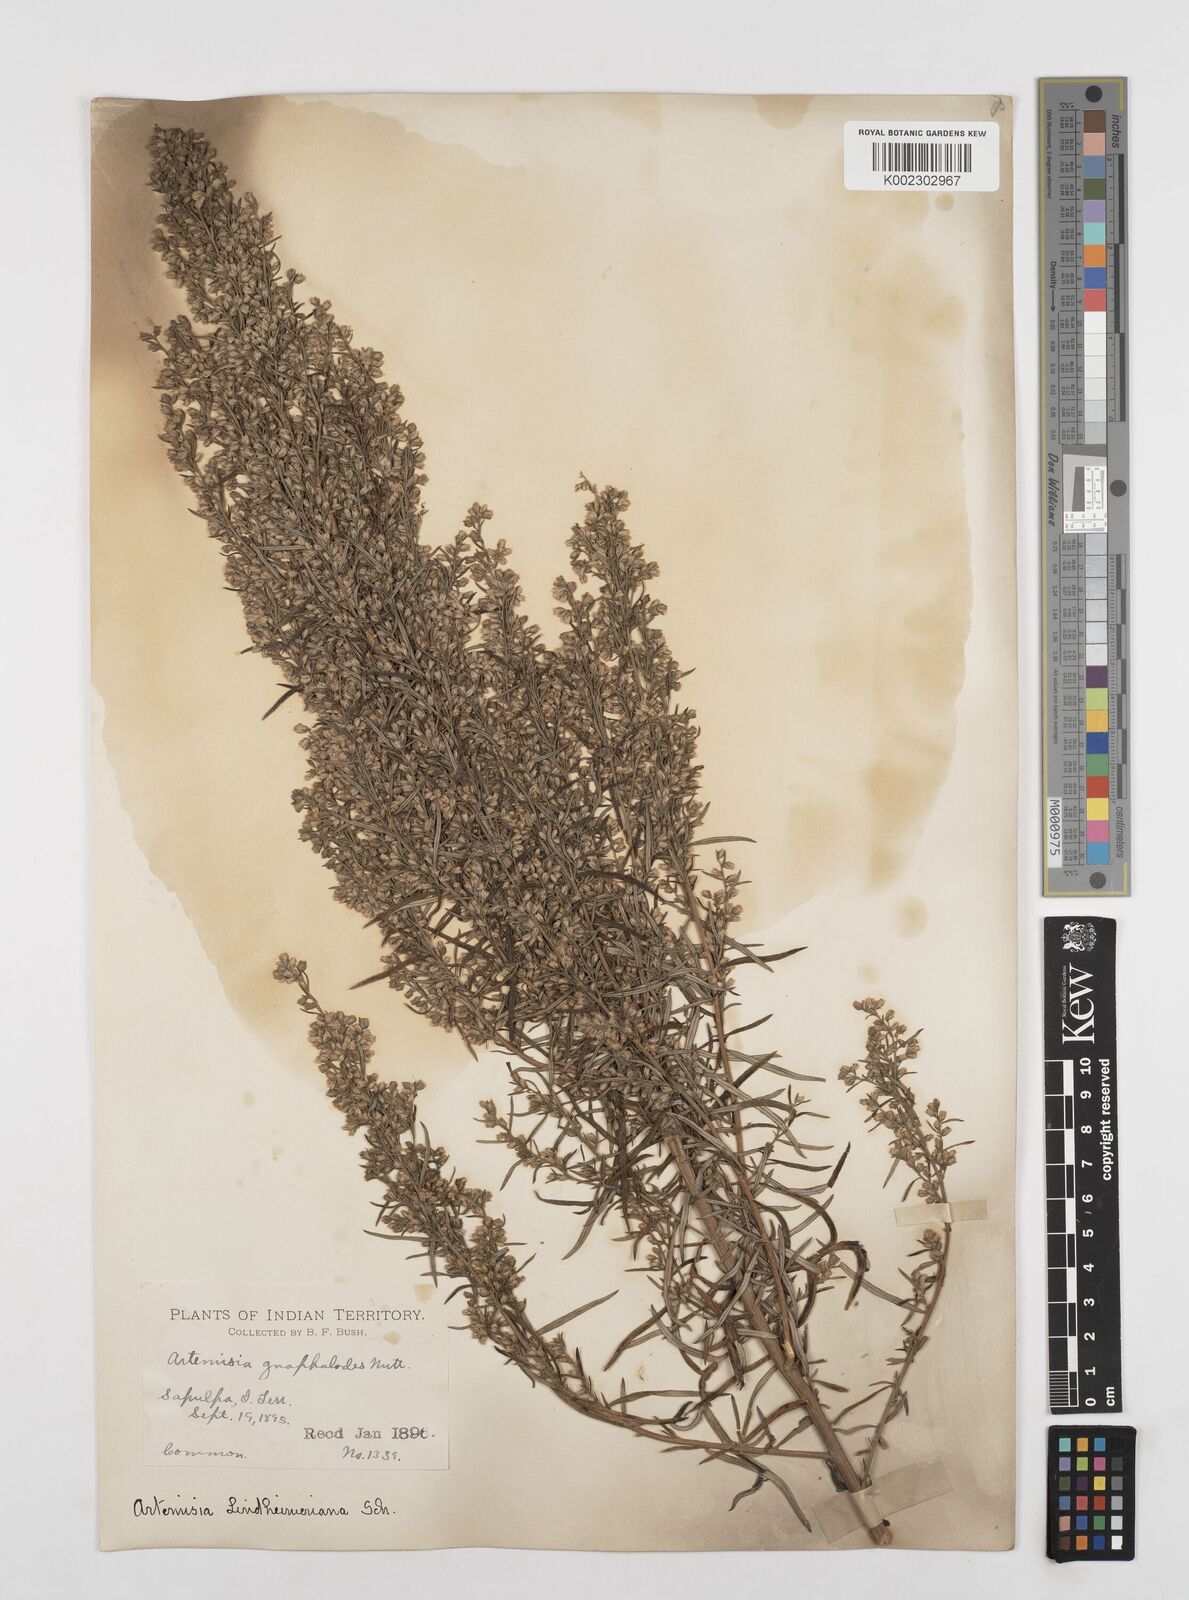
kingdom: Plantae
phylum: Tracheophyta
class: Magnoliopsida
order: Asterales
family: Asteraceae
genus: Artemisia
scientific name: Artemisia ludoviciana
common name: Western mugwort
